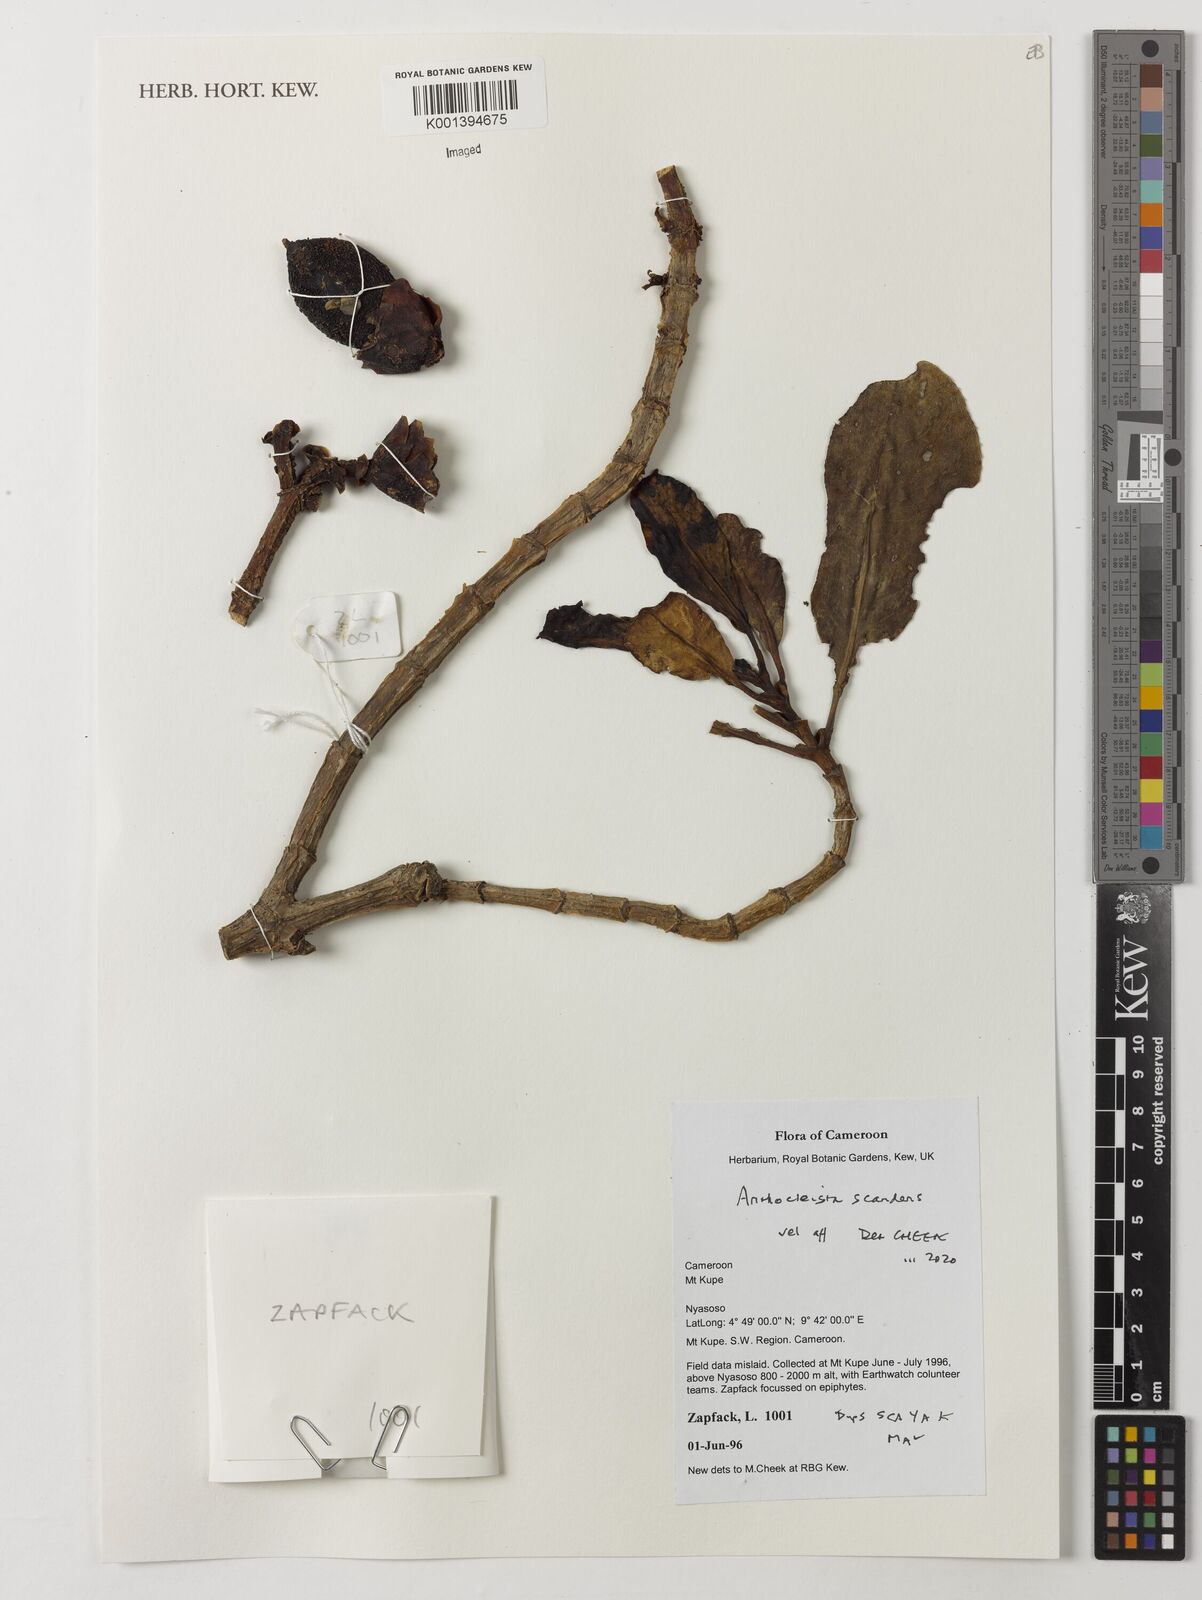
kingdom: Plantae
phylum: Tracheophyta
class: Magnoliopsida
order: Gentianales
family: Gentianaceae
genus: Anthocleista
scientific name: Anthocleista scandens
